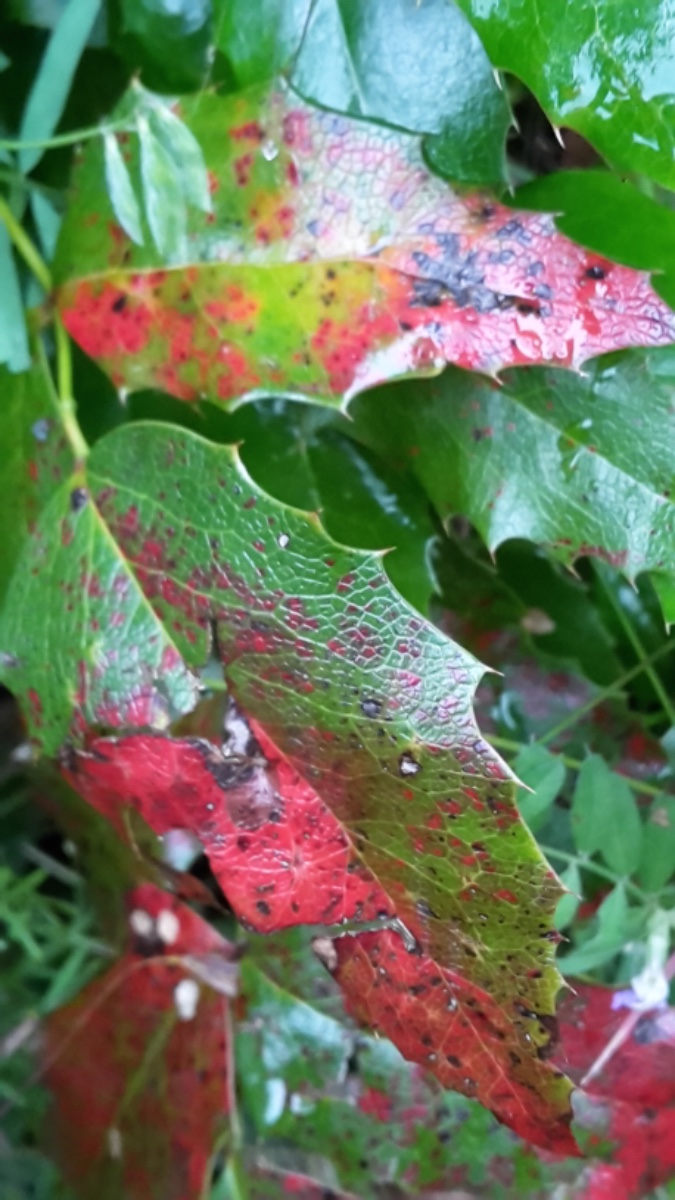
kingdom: Fungi
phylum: Basidiomycota
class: Pucciniomycetes
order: Pucciniales
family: Pucciniaceae
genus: Cumminsiella
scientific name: Cumminsiella mirabilissima
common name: mahonierust
